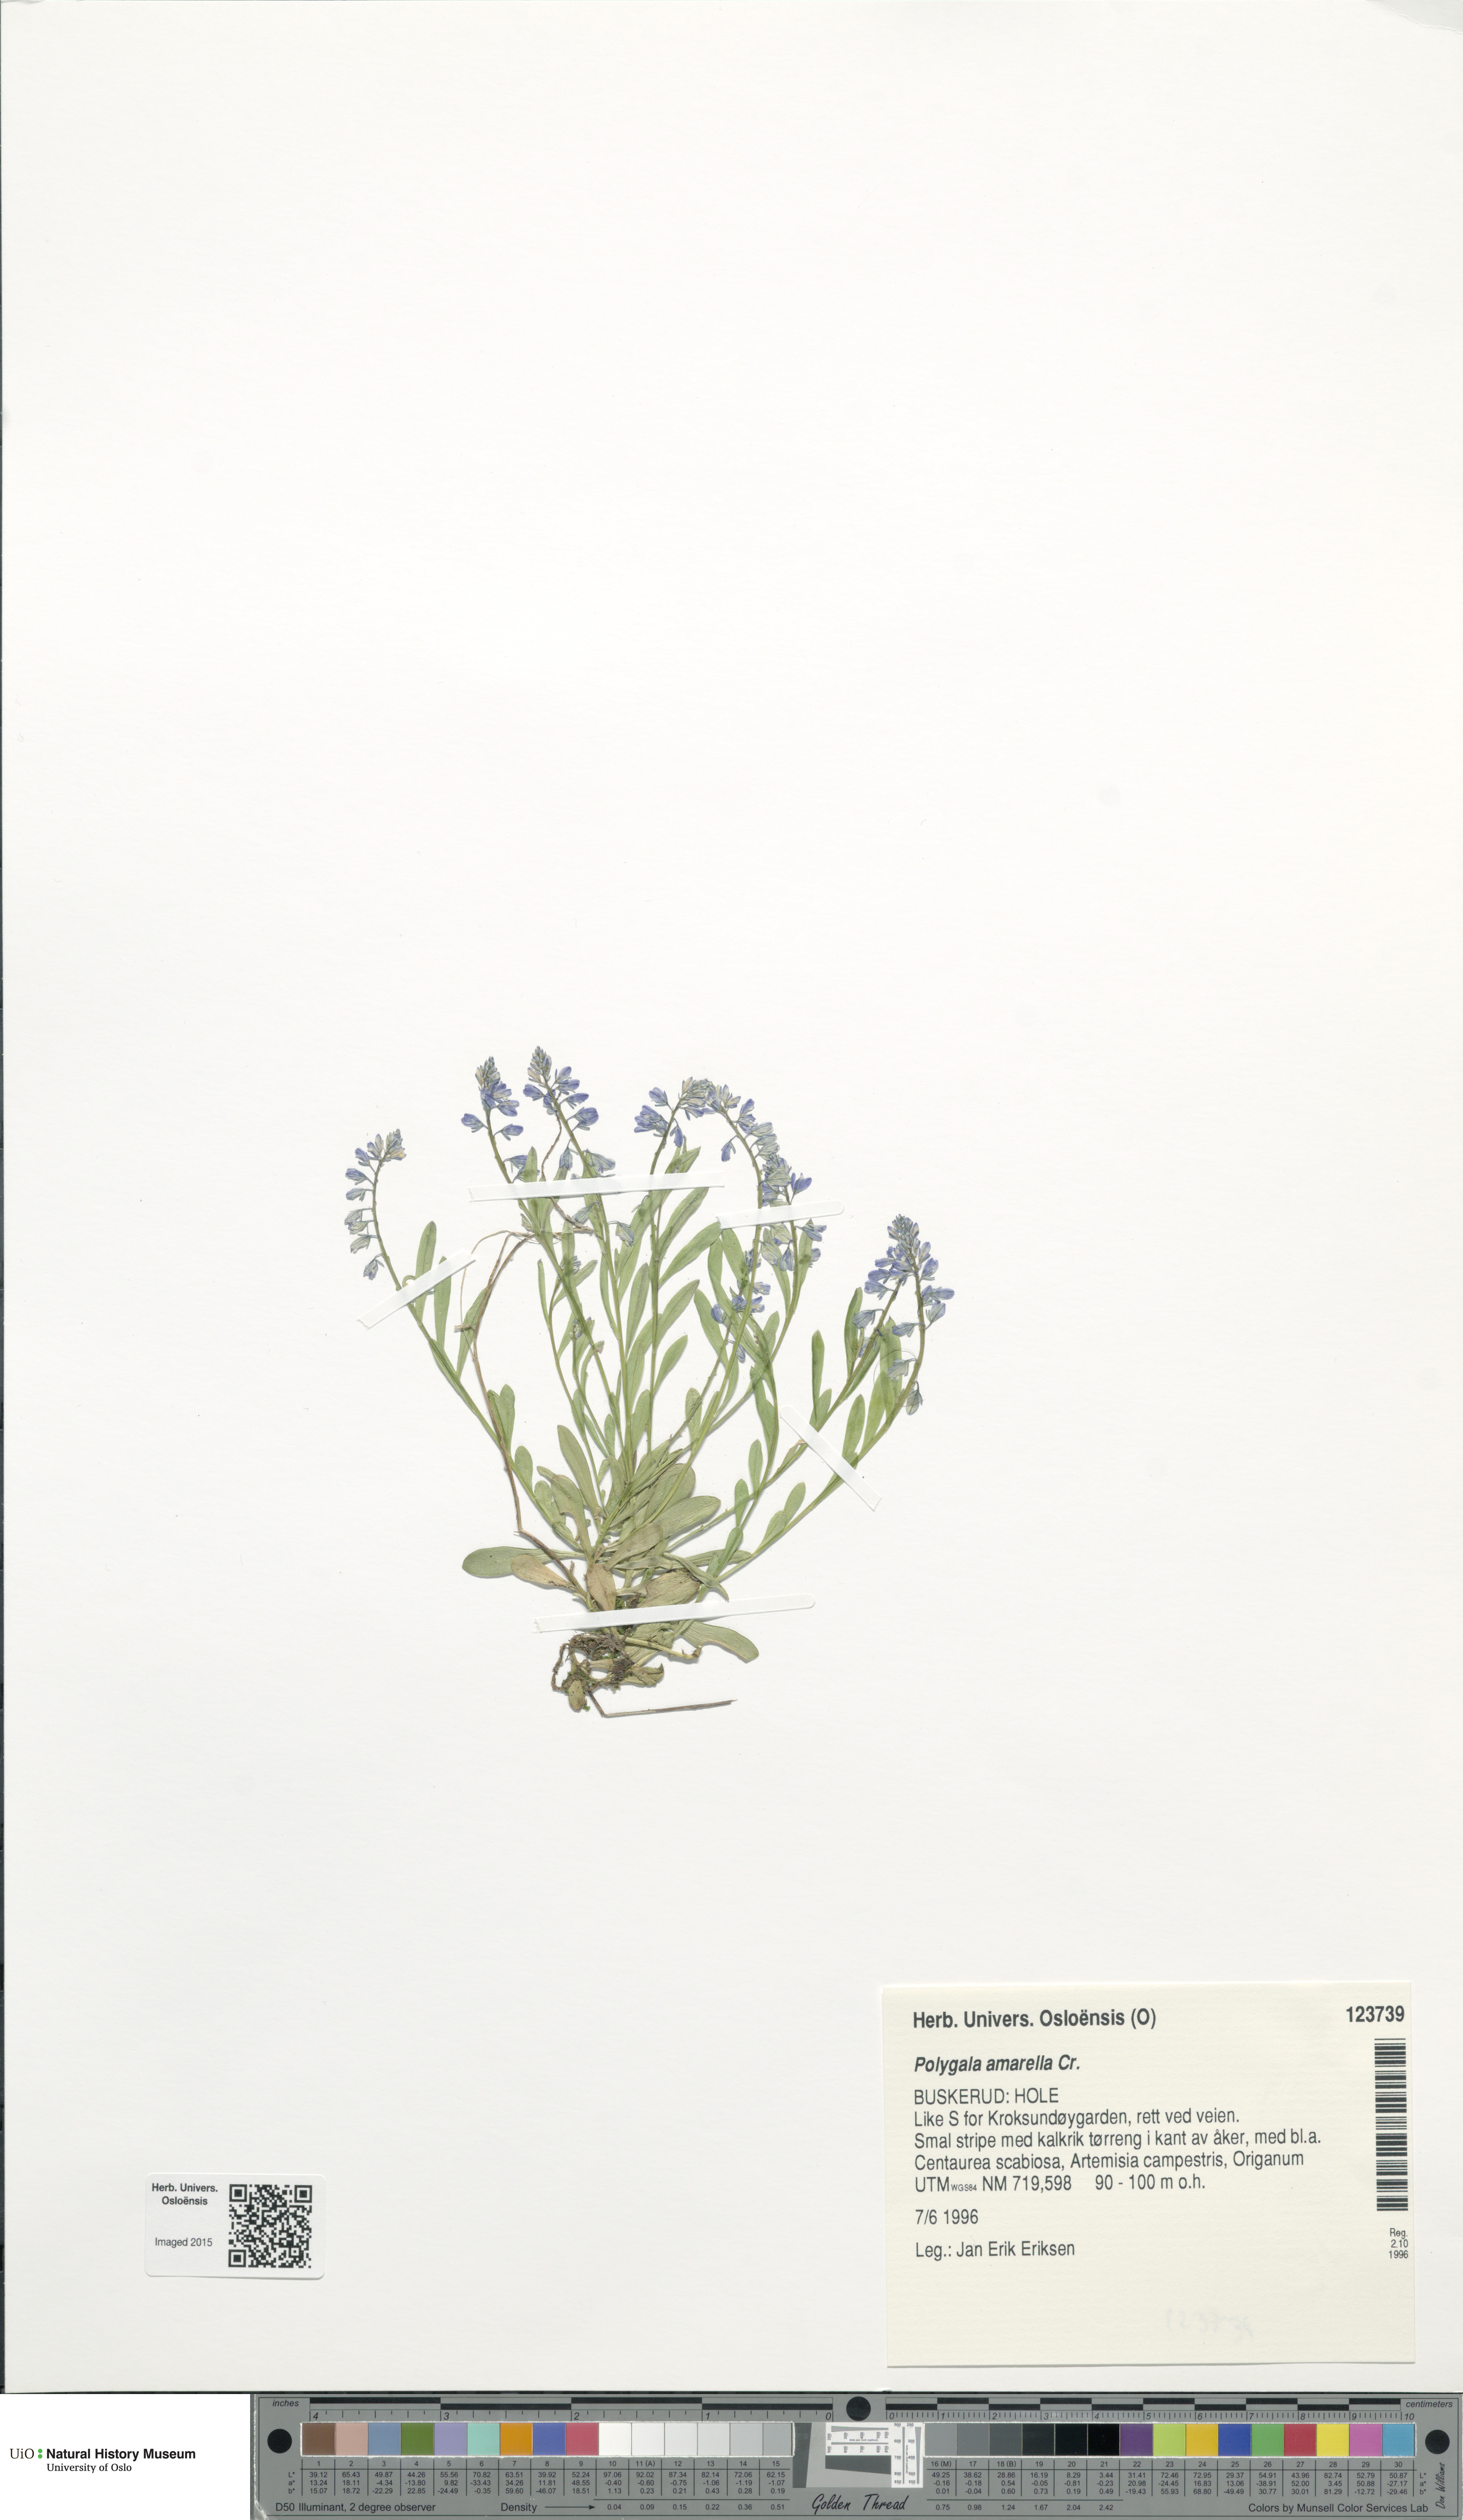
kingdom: Plantae
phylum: Tracheophyta
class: Magnoliopsida
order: Fabales
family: Polygalaceae
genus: Polygala
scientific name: Polygala amarella
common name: Dwarf milkwort
